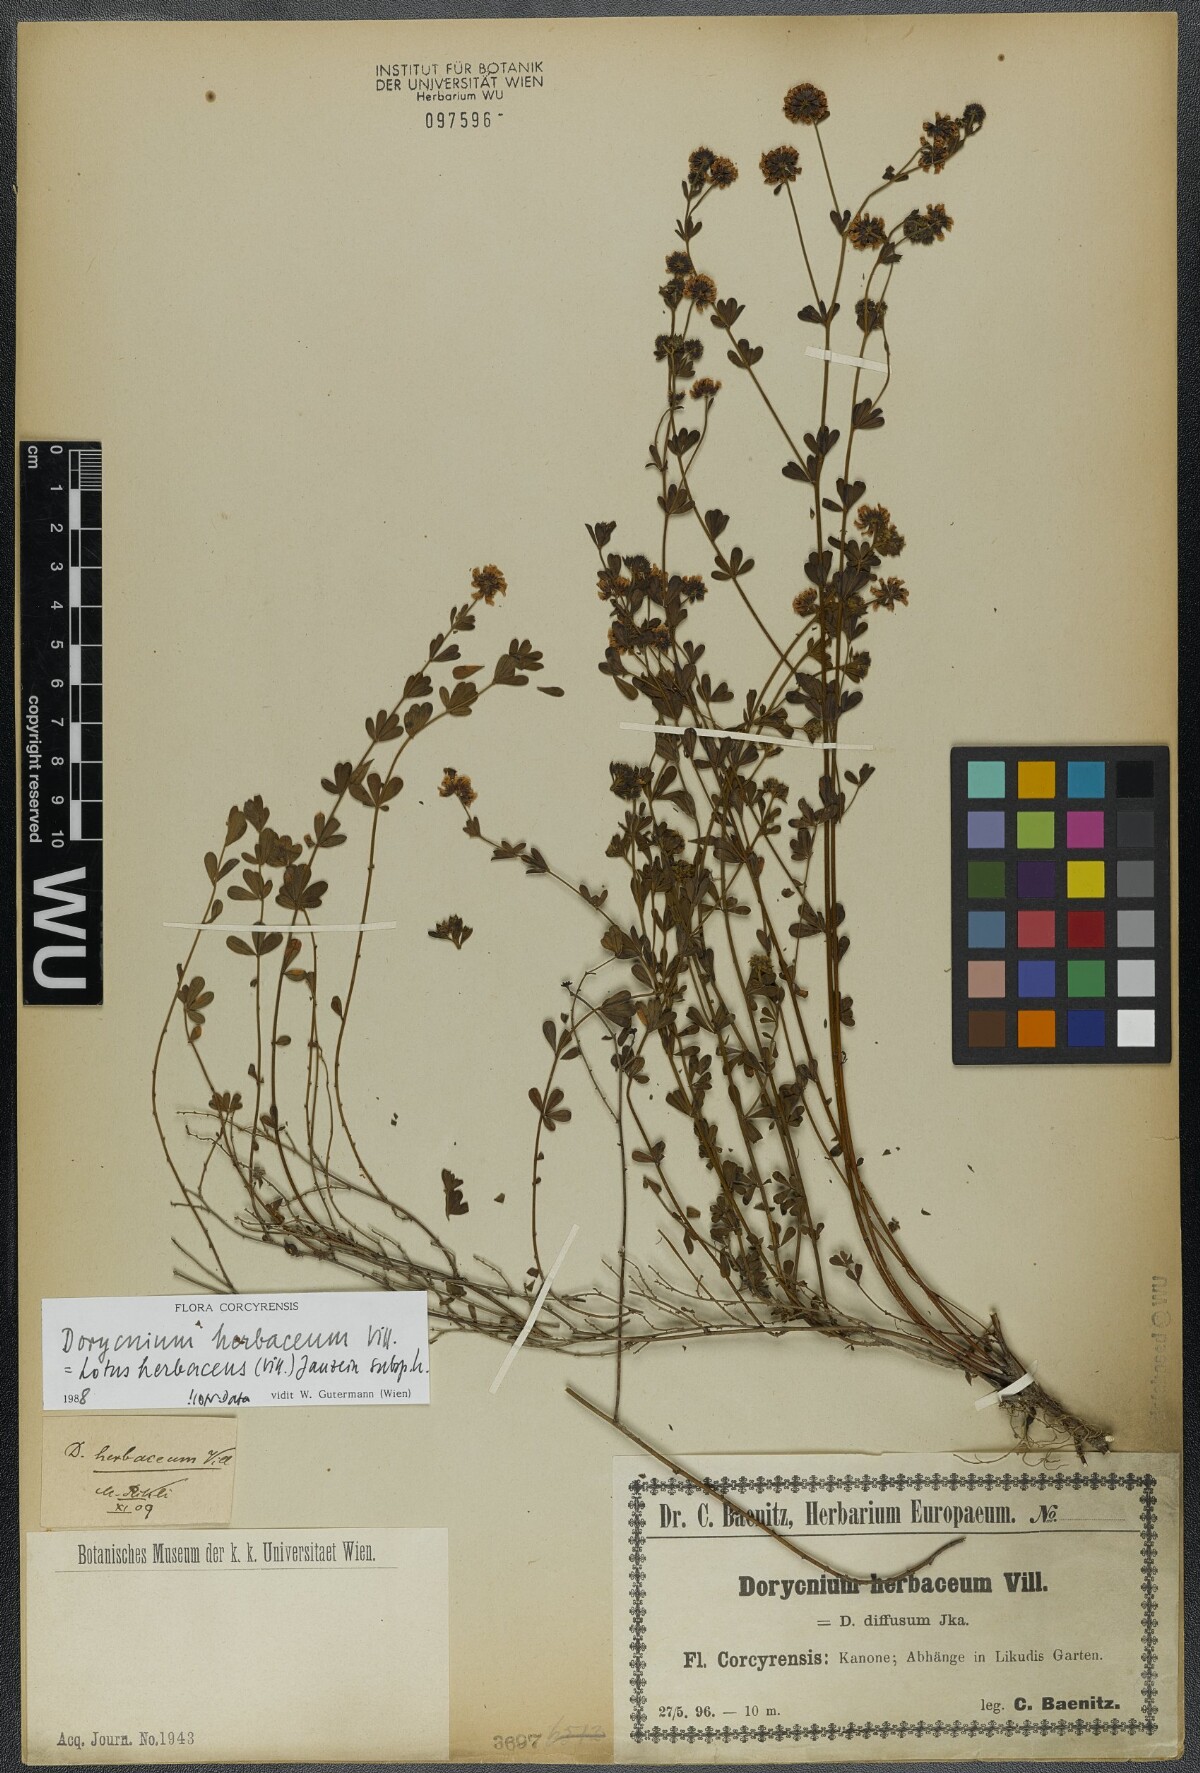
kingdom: Plantae
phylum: Tracheophyta
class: Magnoliopsida
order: Fabales
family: Fabaceae
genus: Lotus
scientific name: Lotus herbaceus
